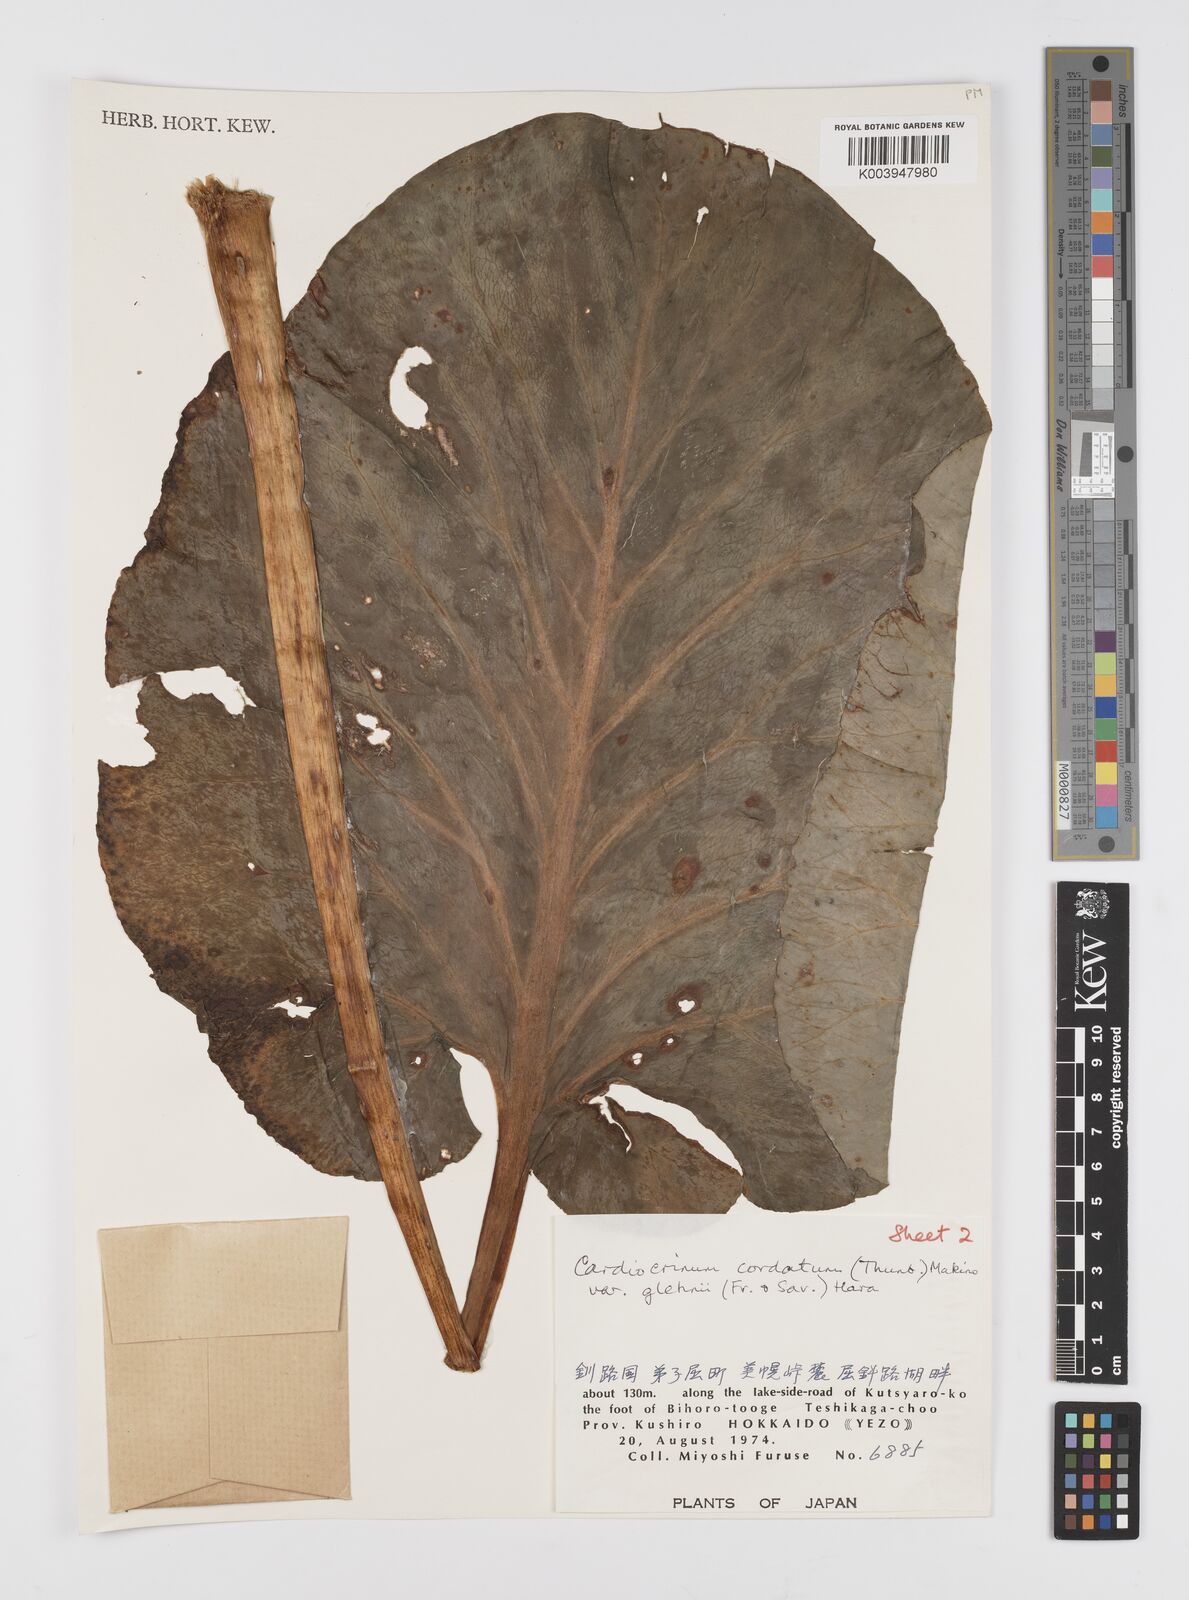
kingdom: Plantae
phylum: Tracheophyta
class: Liliopsida
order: Liliales
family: Liliaceae
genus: Cardiocrinum
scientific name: Cardiocrinum cordatum
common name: Lily
